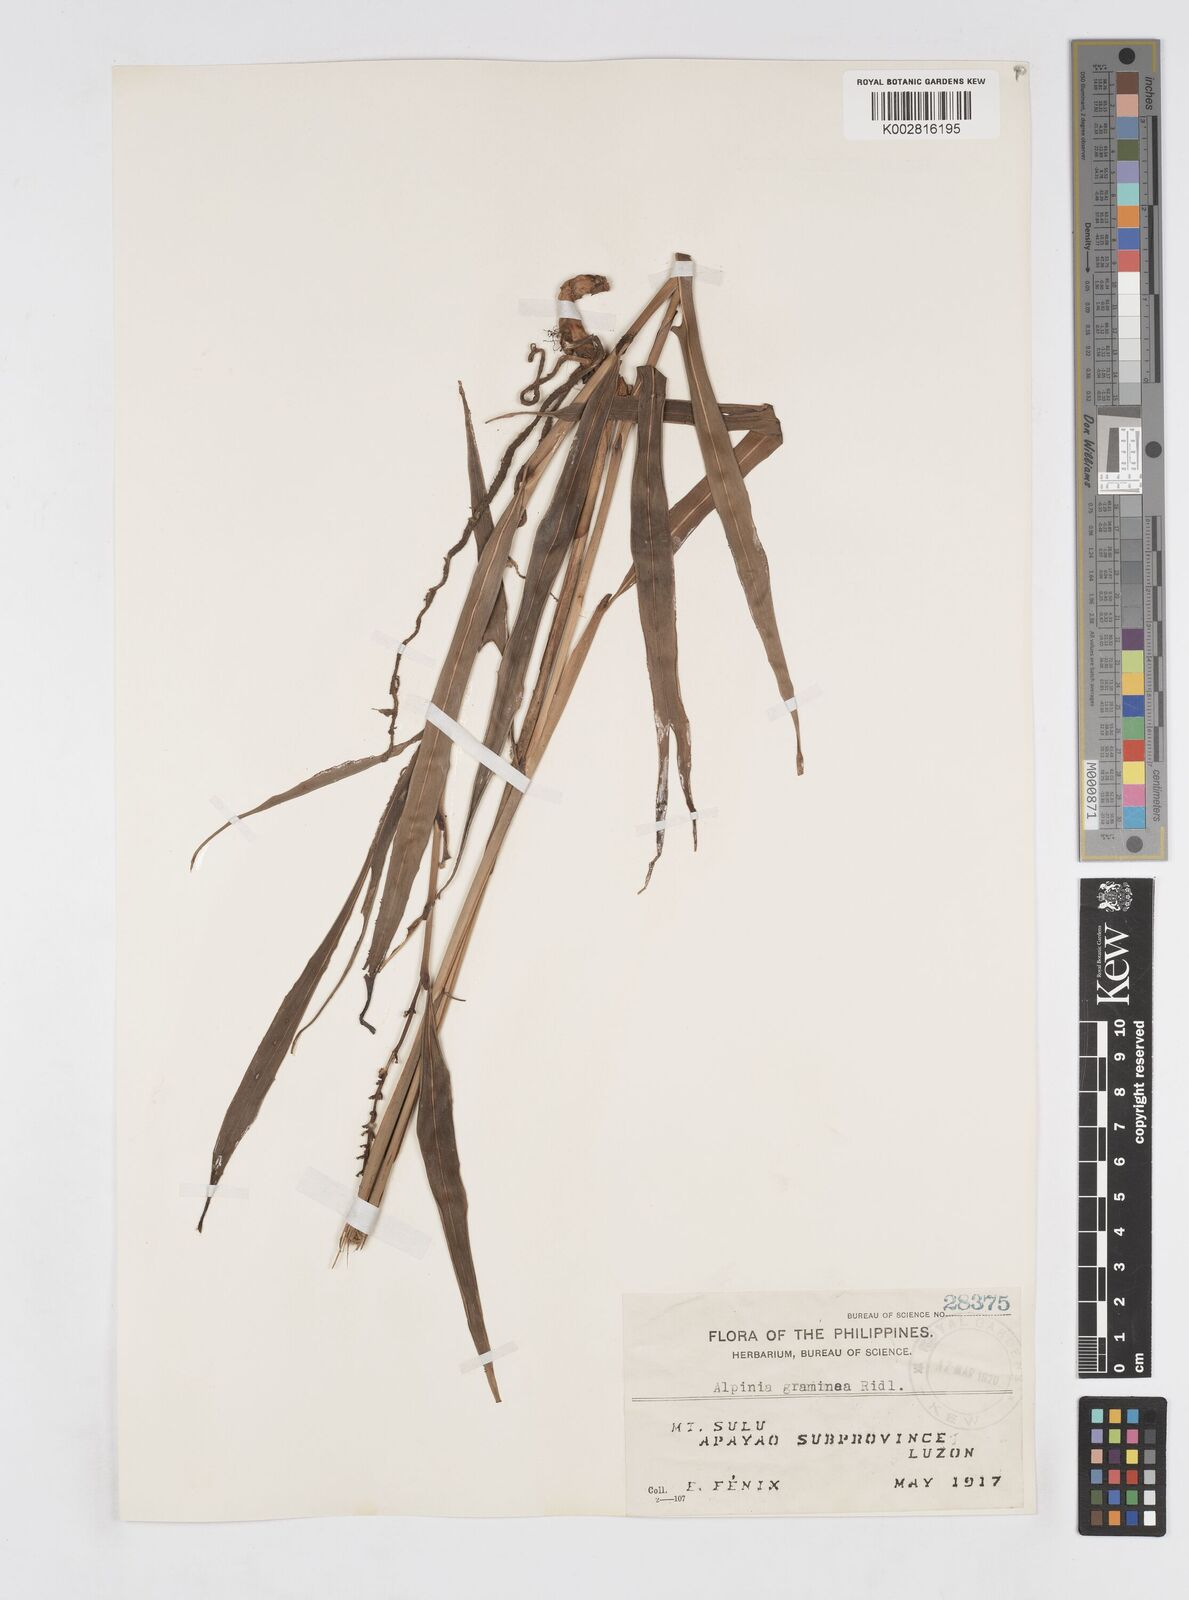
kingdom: Plantae
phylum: Tracheophyta
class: Liliopsida
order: Zingiberales
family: Zingiberaceae
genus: Alpinia
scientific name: Alpinia graminea
